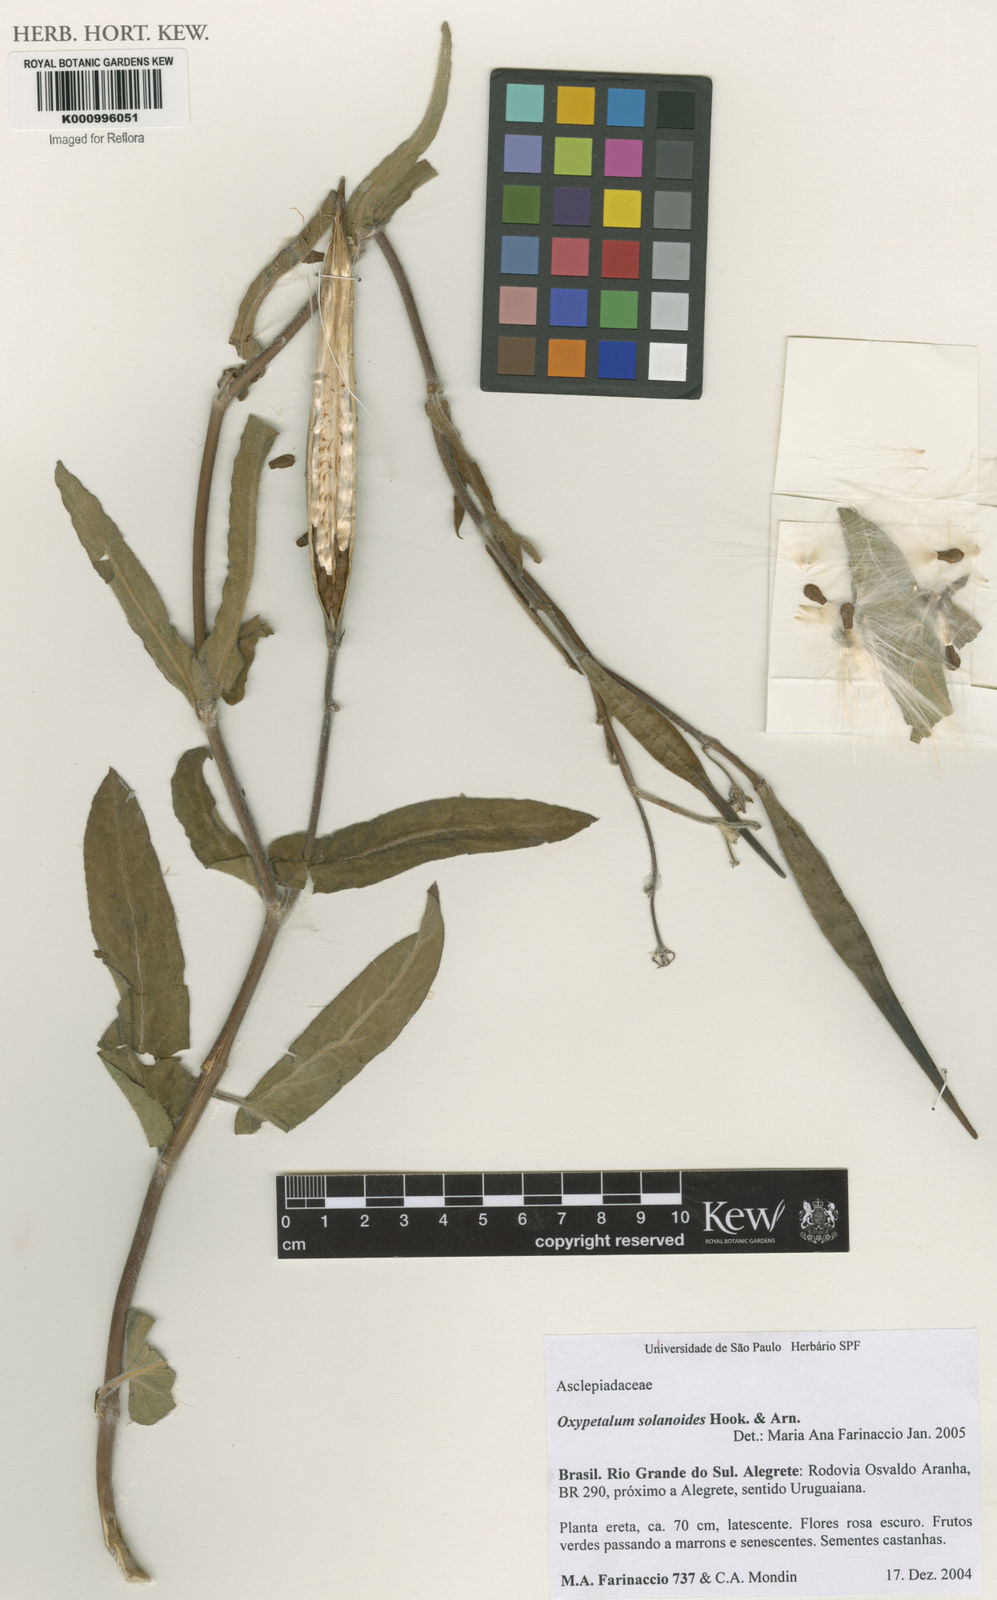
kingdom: Plantae
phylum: Tracheophyta
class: Magnoliopsida
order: Gentianales
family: Apocynaceae
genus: Oxypetalum
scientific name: Oxypetalum solanoides
